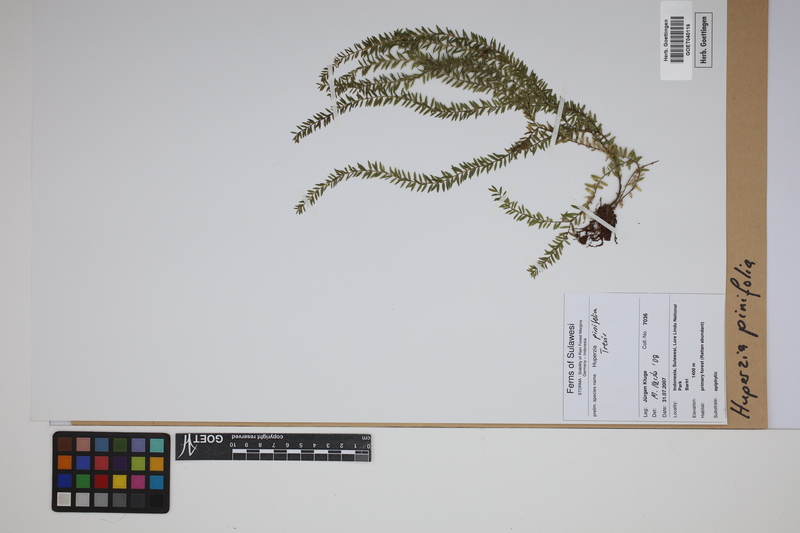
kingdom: Plantae
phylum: Tracheophyta
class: Lycopodiopsida
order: Lycopodiales
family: Lycopodiaceae
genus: Phlegmariurus
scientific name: Phlegmariurus pinifolius
